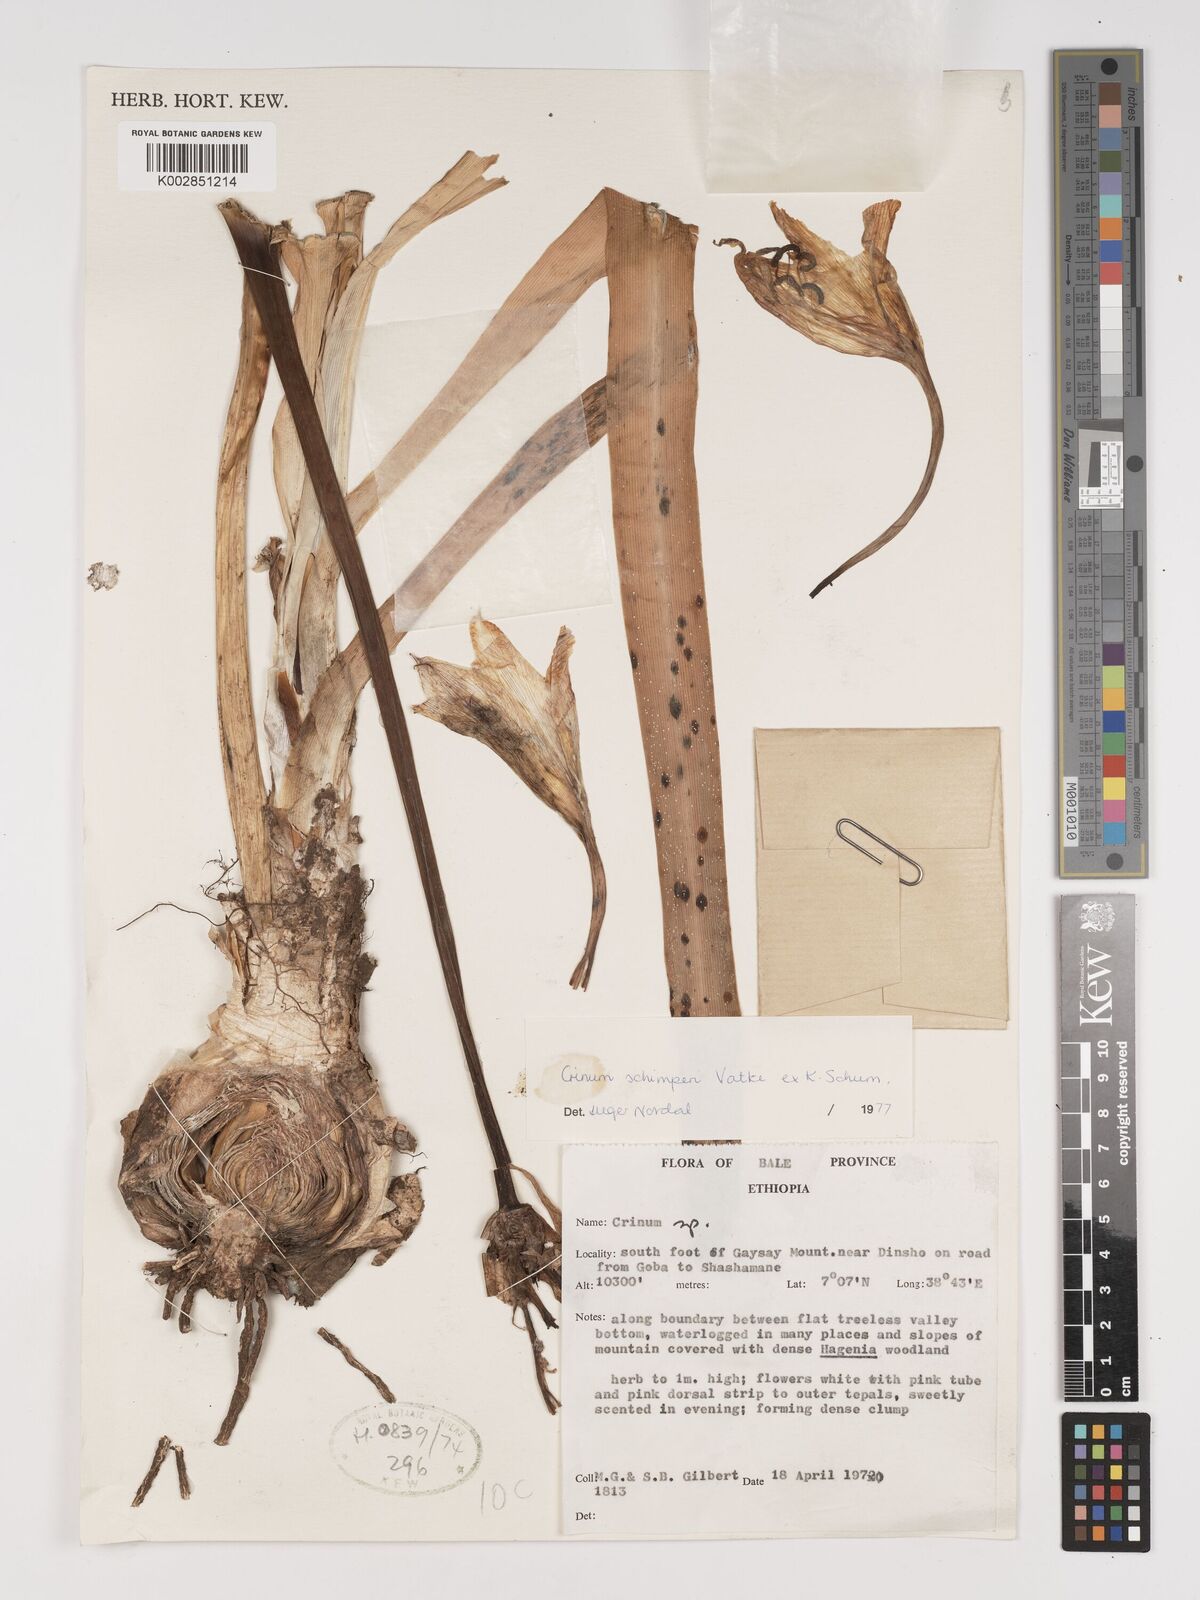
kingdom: Plantae
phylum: Tracheophyta
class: Liliopsida
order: Asparagales
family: Amaryllidaceae
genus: Crinum
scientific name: Crinum abyssinicum
